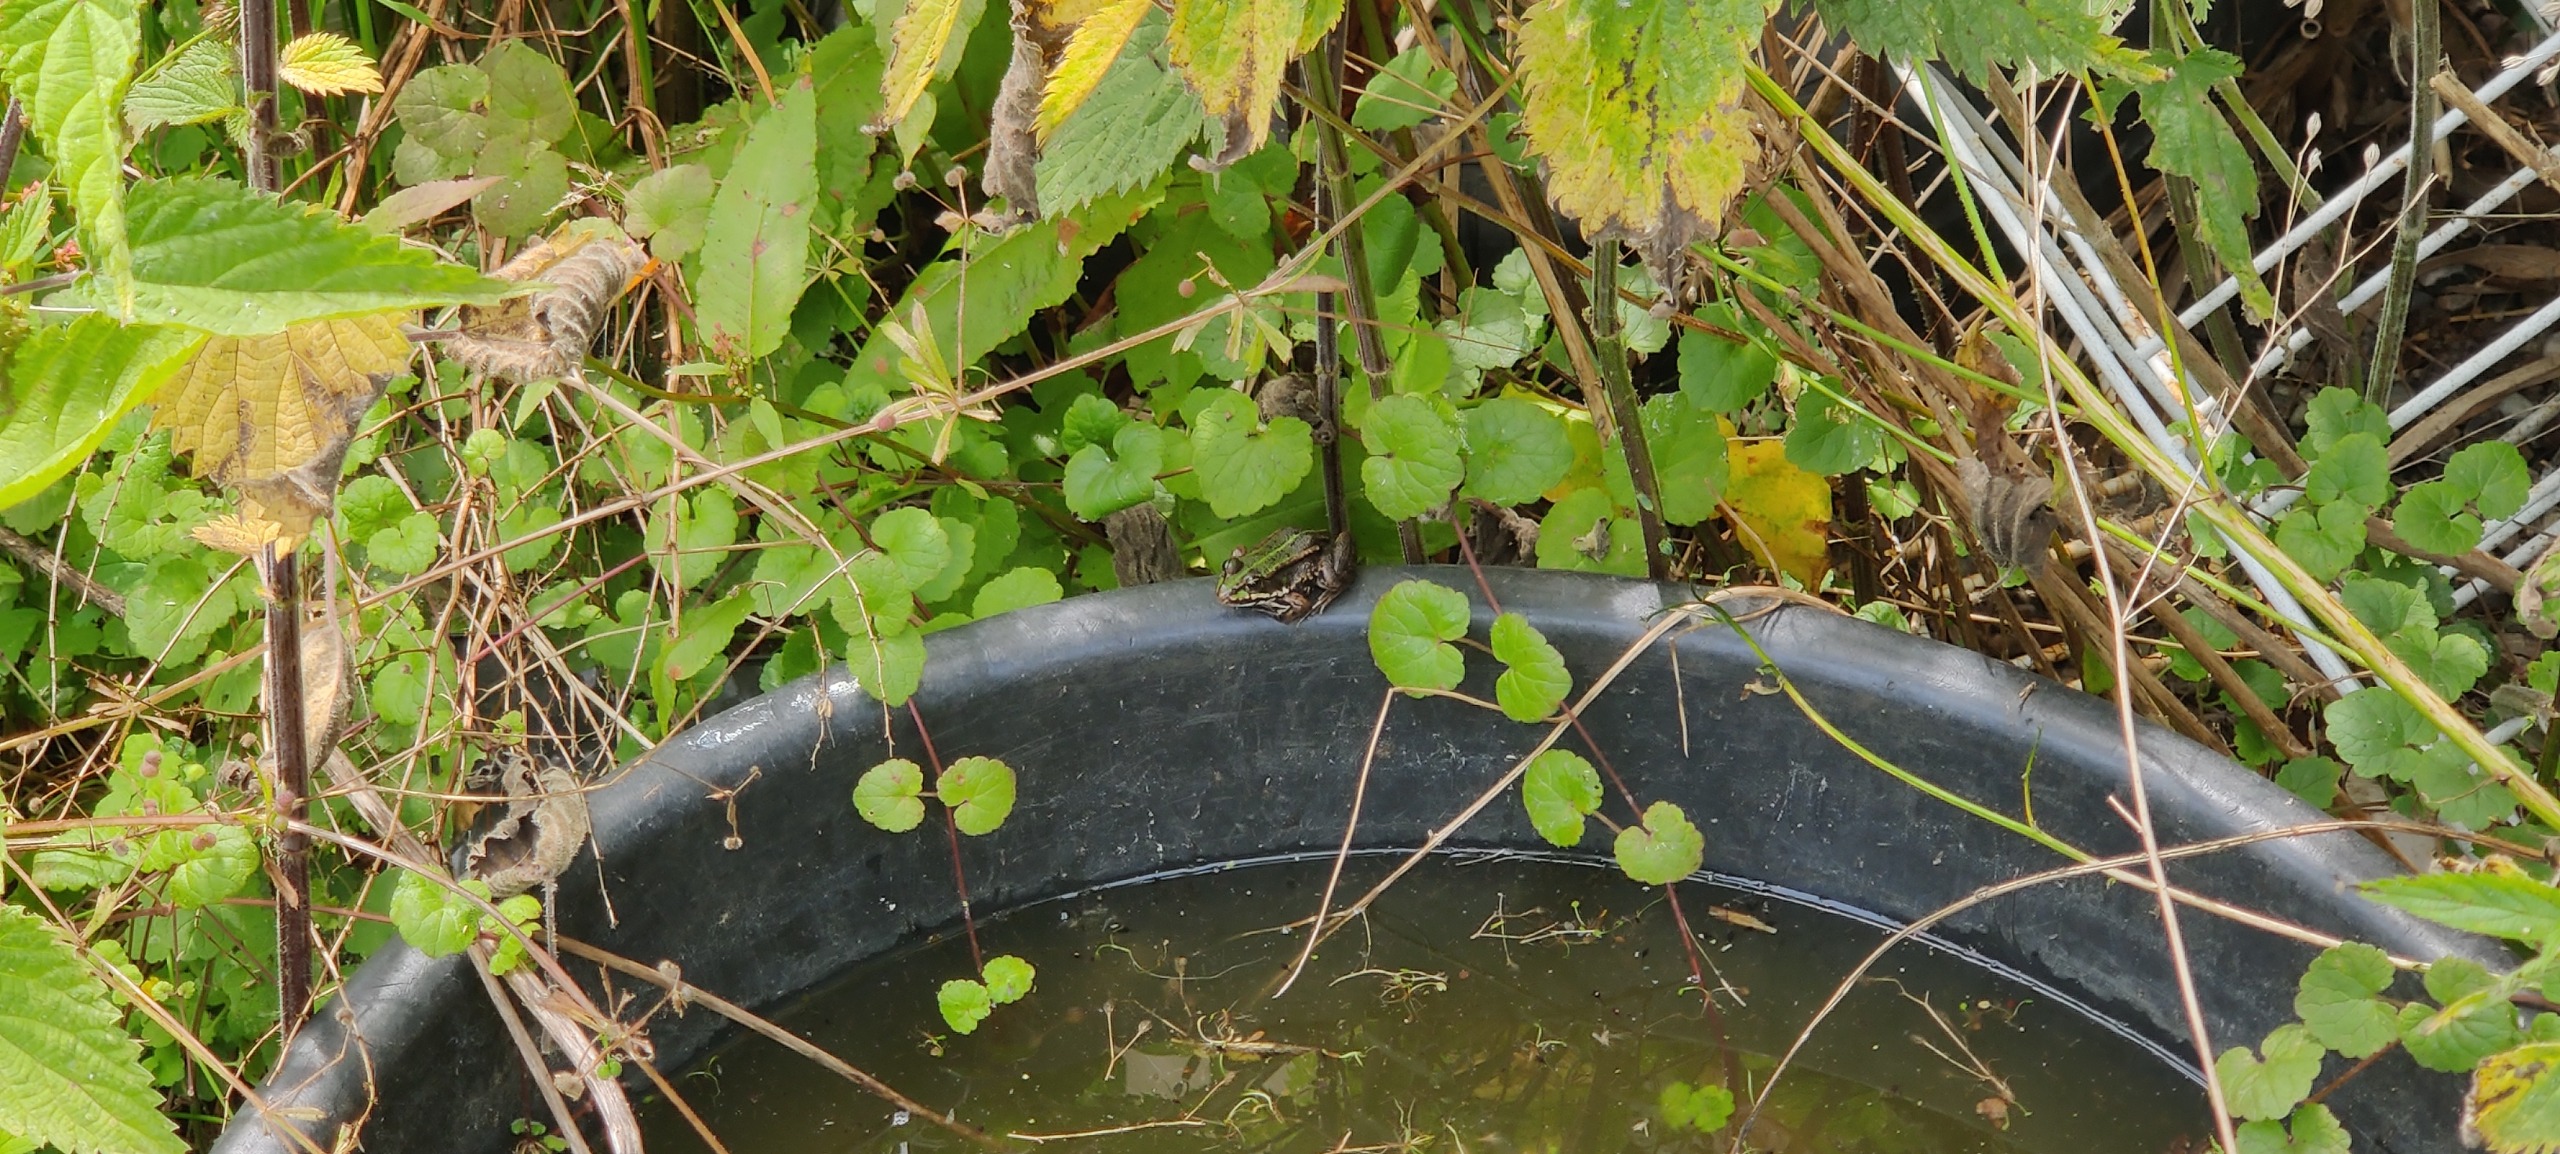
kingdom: Animalia
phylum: Chordata
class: Amphibia
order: Anura
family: Ranidae
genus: Pelophylax
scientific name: Pelophylax lessonae
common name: Grøn frø
